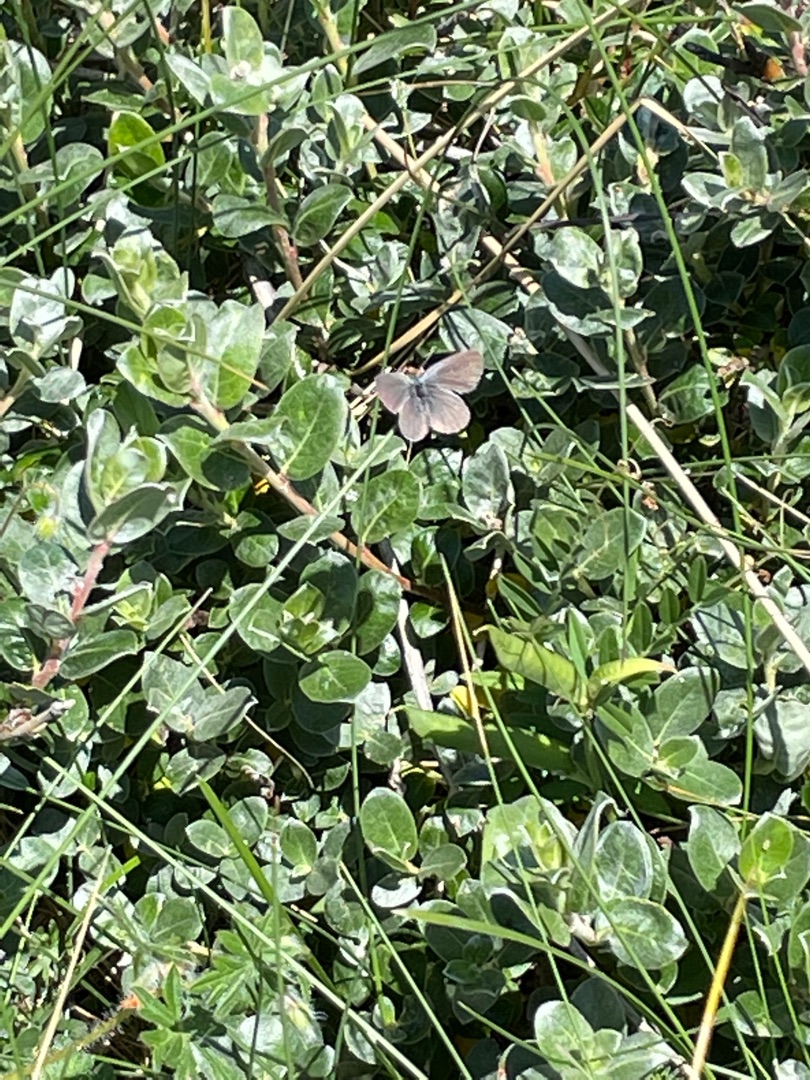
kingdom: Animalia
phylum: Arthropoda
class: Insecta
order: Lepidoptera
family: Lycaenidae
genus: Cupido
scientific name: Cupido minimus
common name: Dværgblåfugl
